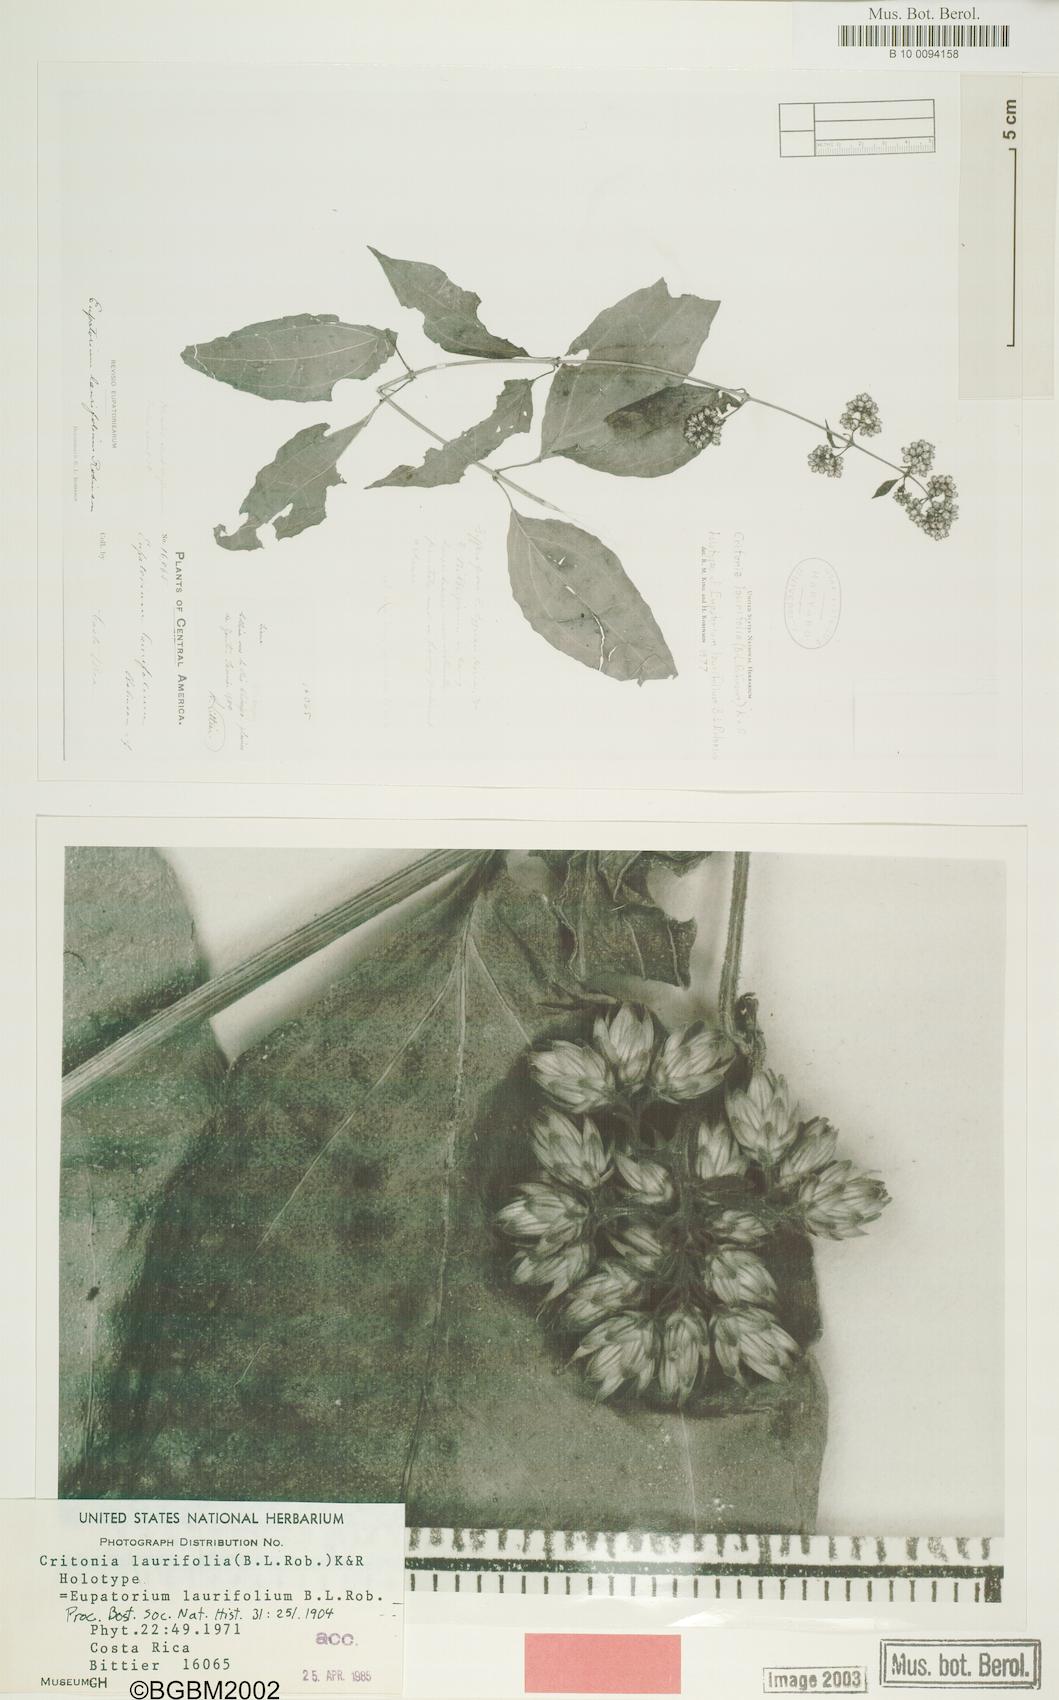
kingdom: Plantae
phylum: Tracheophyta
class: Magnoliopsida
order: Asterales
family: Asteraceae
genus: Critonia
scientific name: Critonia laurifolia
